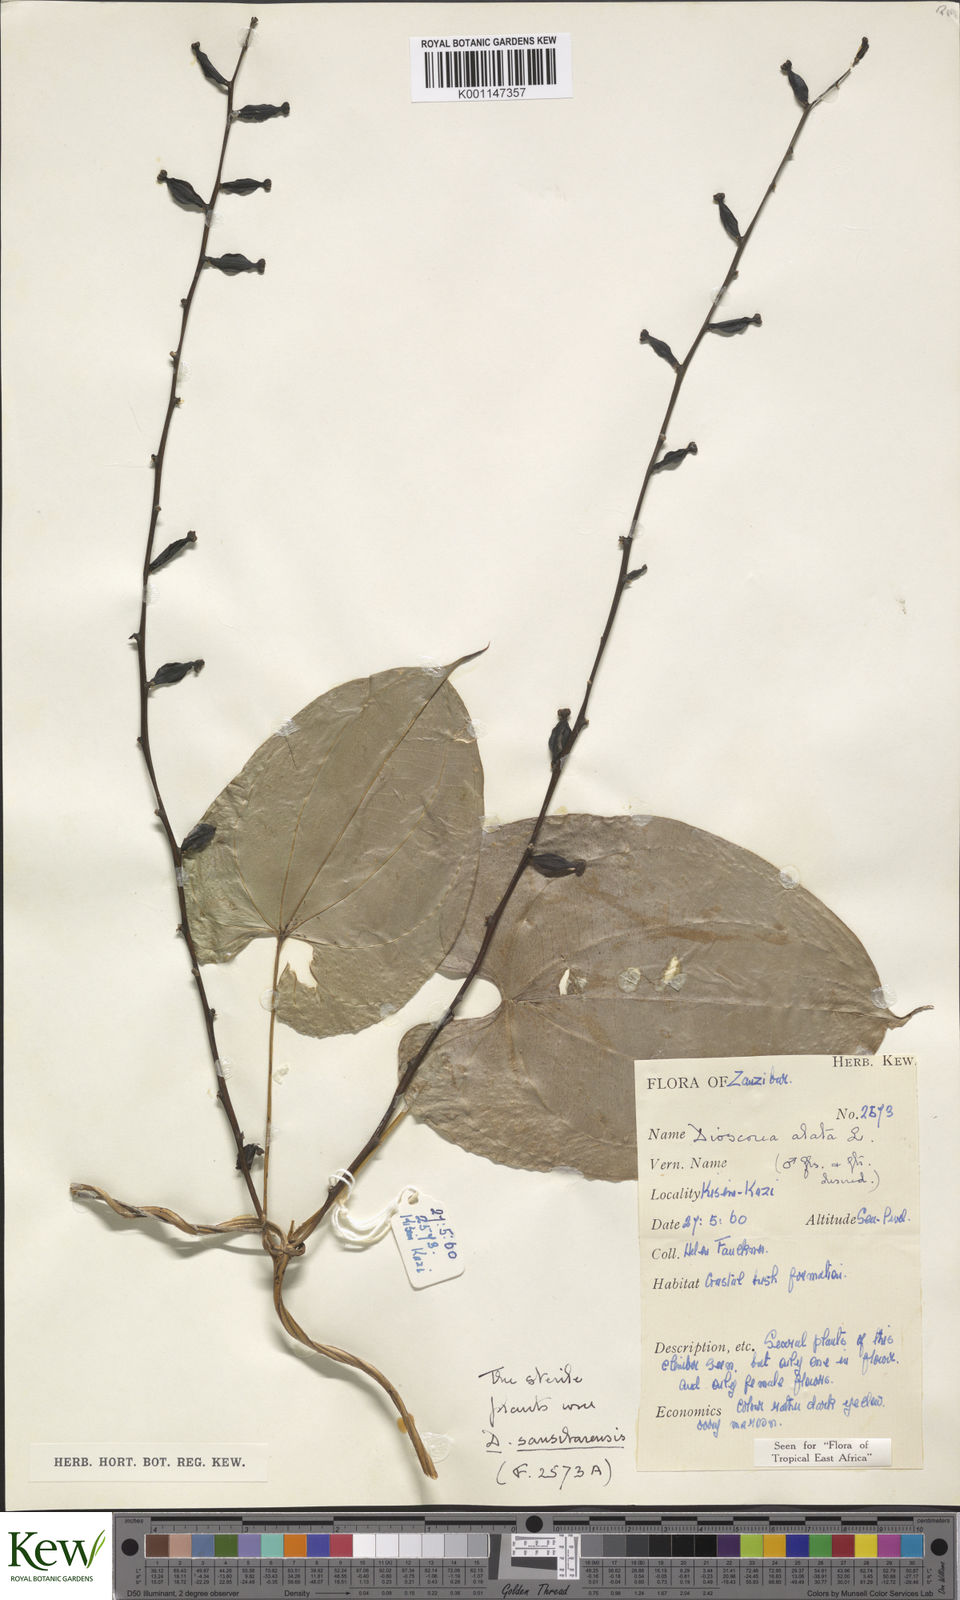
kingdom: Plantae
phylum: Tracheophyta
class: Liliopsida
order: Dioscoreales
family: Dioscoreaceae
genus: Dioscorea
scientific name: Dioscorea alata
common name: Water yam
